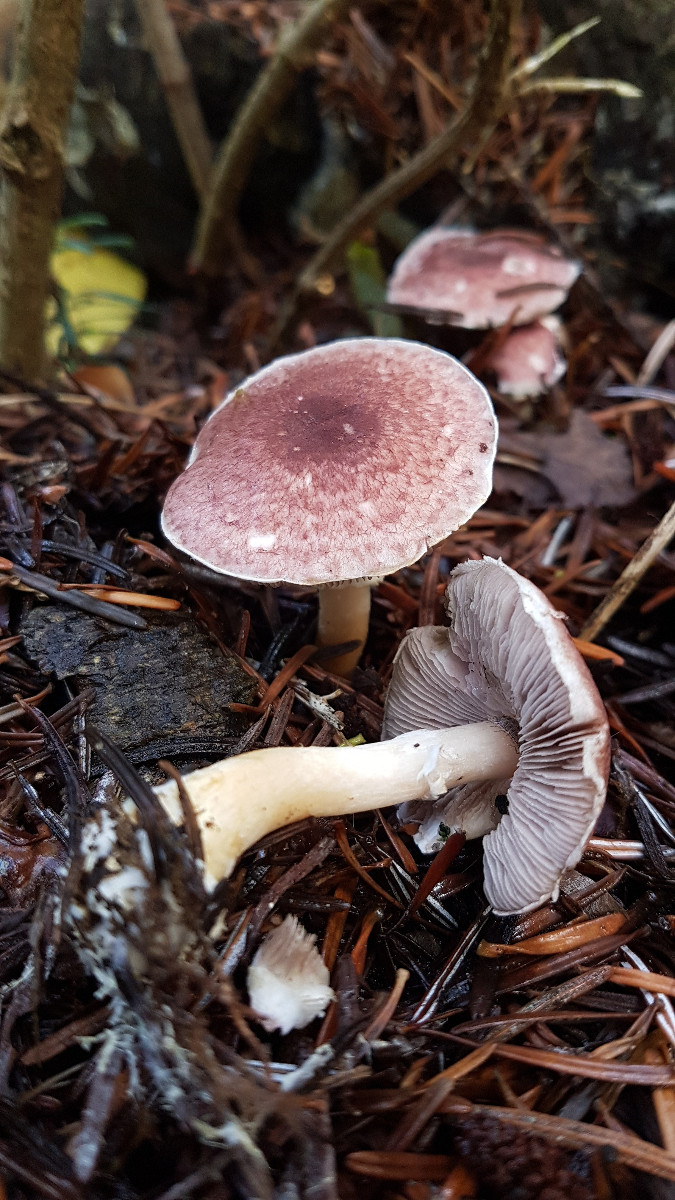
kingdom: Fungi
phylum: Basidiomycota
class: Agaricomycetes
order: Agaricales
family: Agaricaceae
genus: Agaricus
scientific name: Agaricus brunneolus
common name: purpur-champignon
